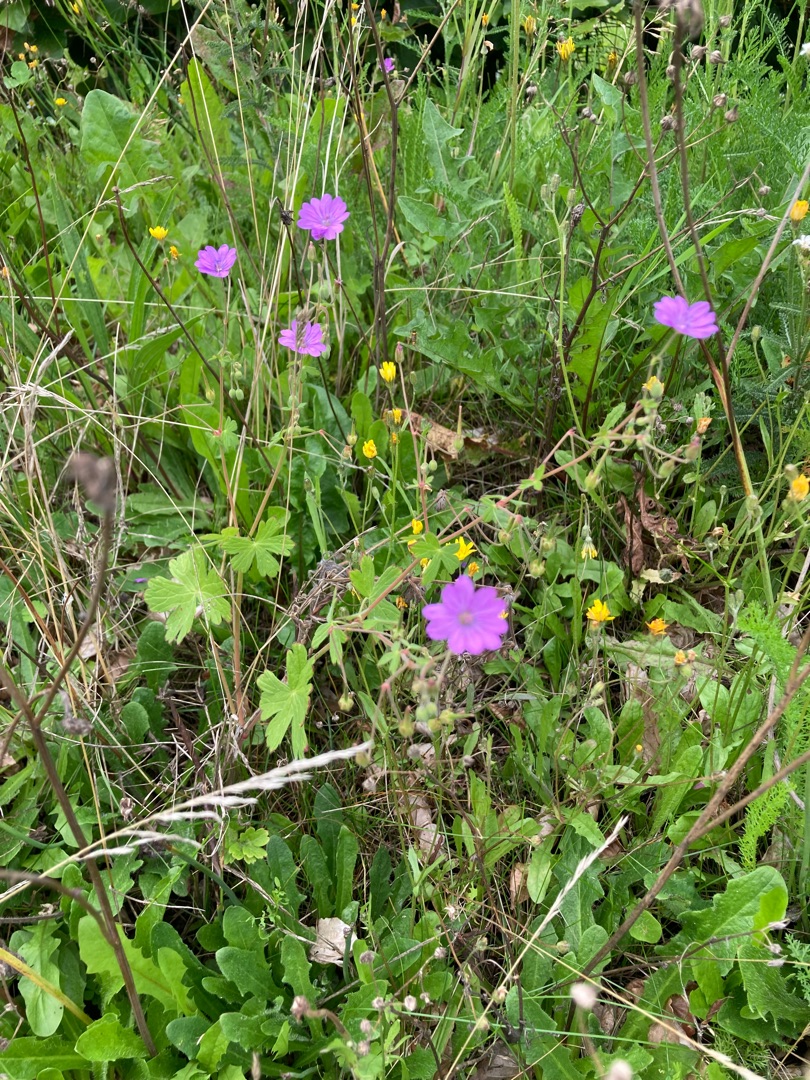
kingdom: Plantae
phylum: Tracheophyta
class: Magnoliopsida
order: Geraniales
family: Geraniaceae
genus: Geranium
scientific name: Geranium pyrenaicum
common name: Pyrenæisk storkenæb
